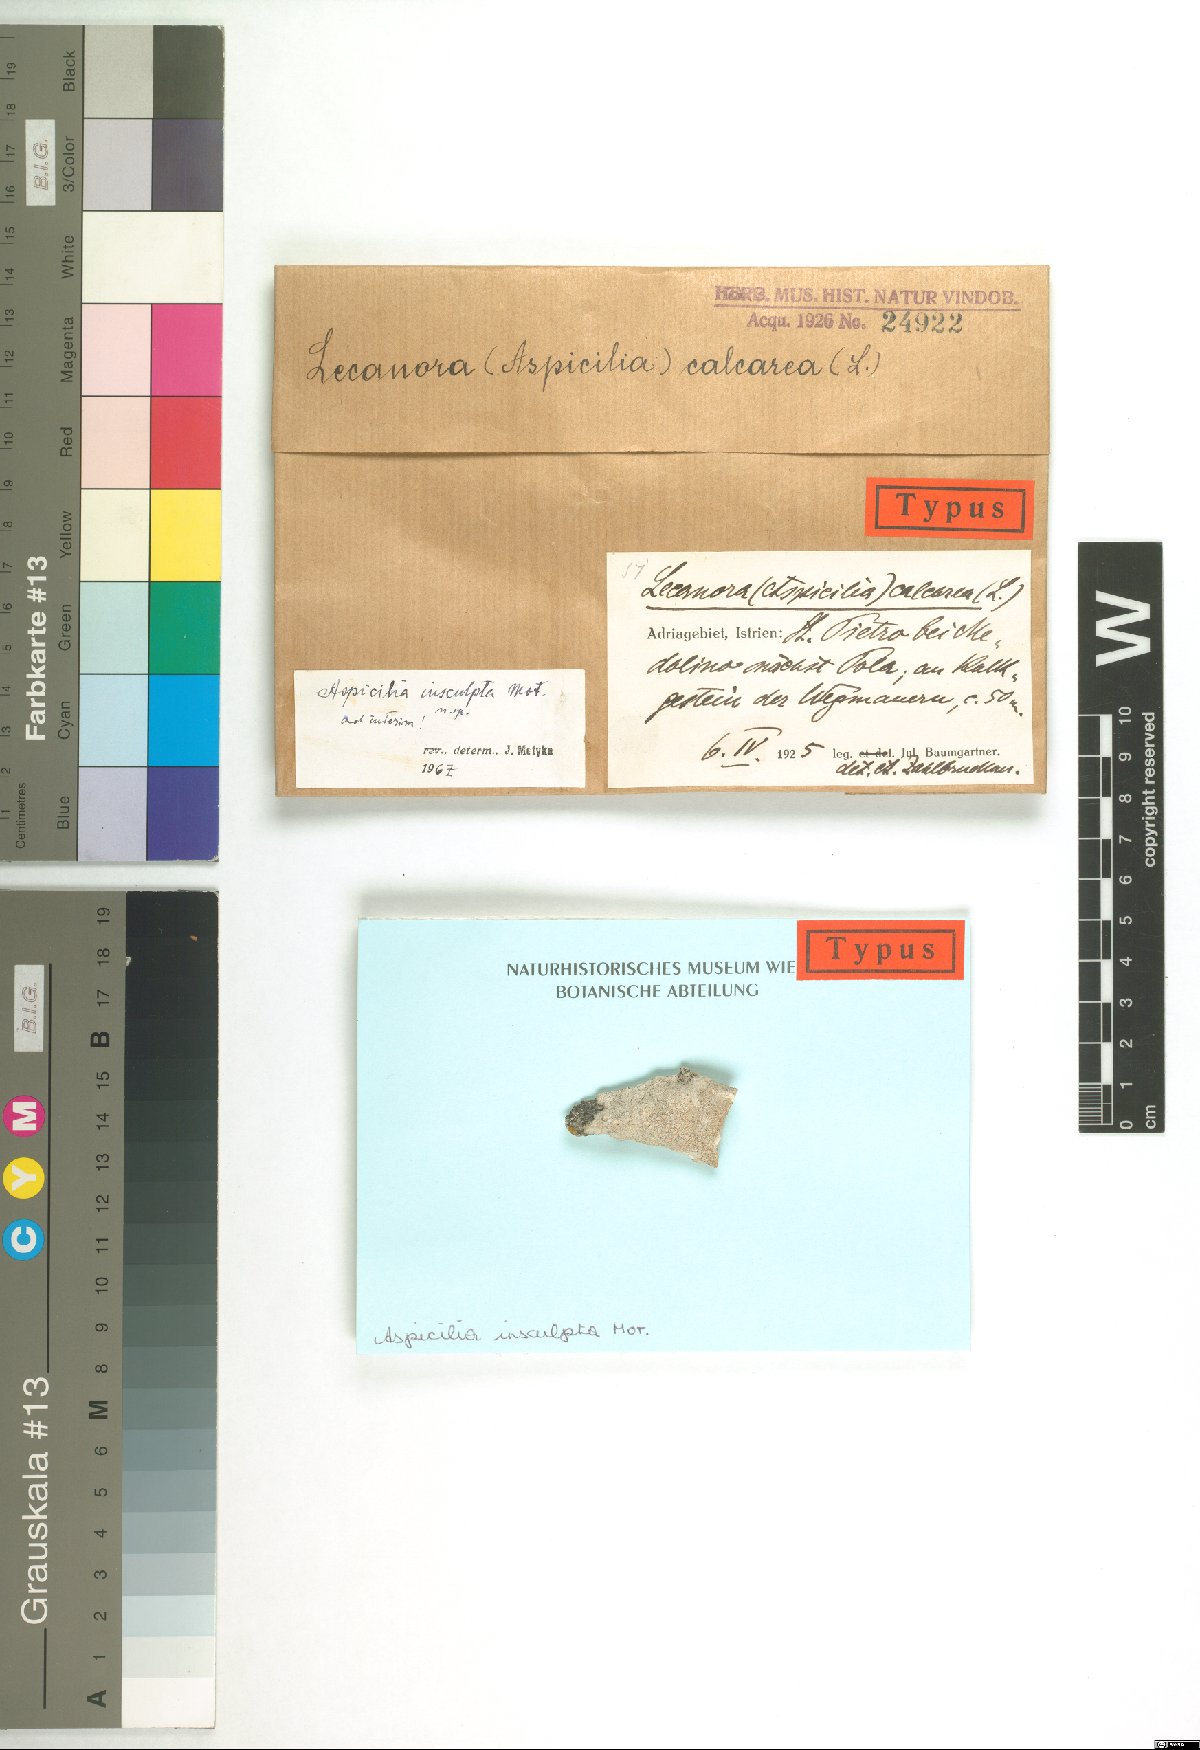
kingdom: Fungi
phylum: Ascomycota
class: Lecanoromycetes
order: Hymeneliales
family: Hymeneliaceae
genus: Aspicilia
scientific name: Aspicilia
